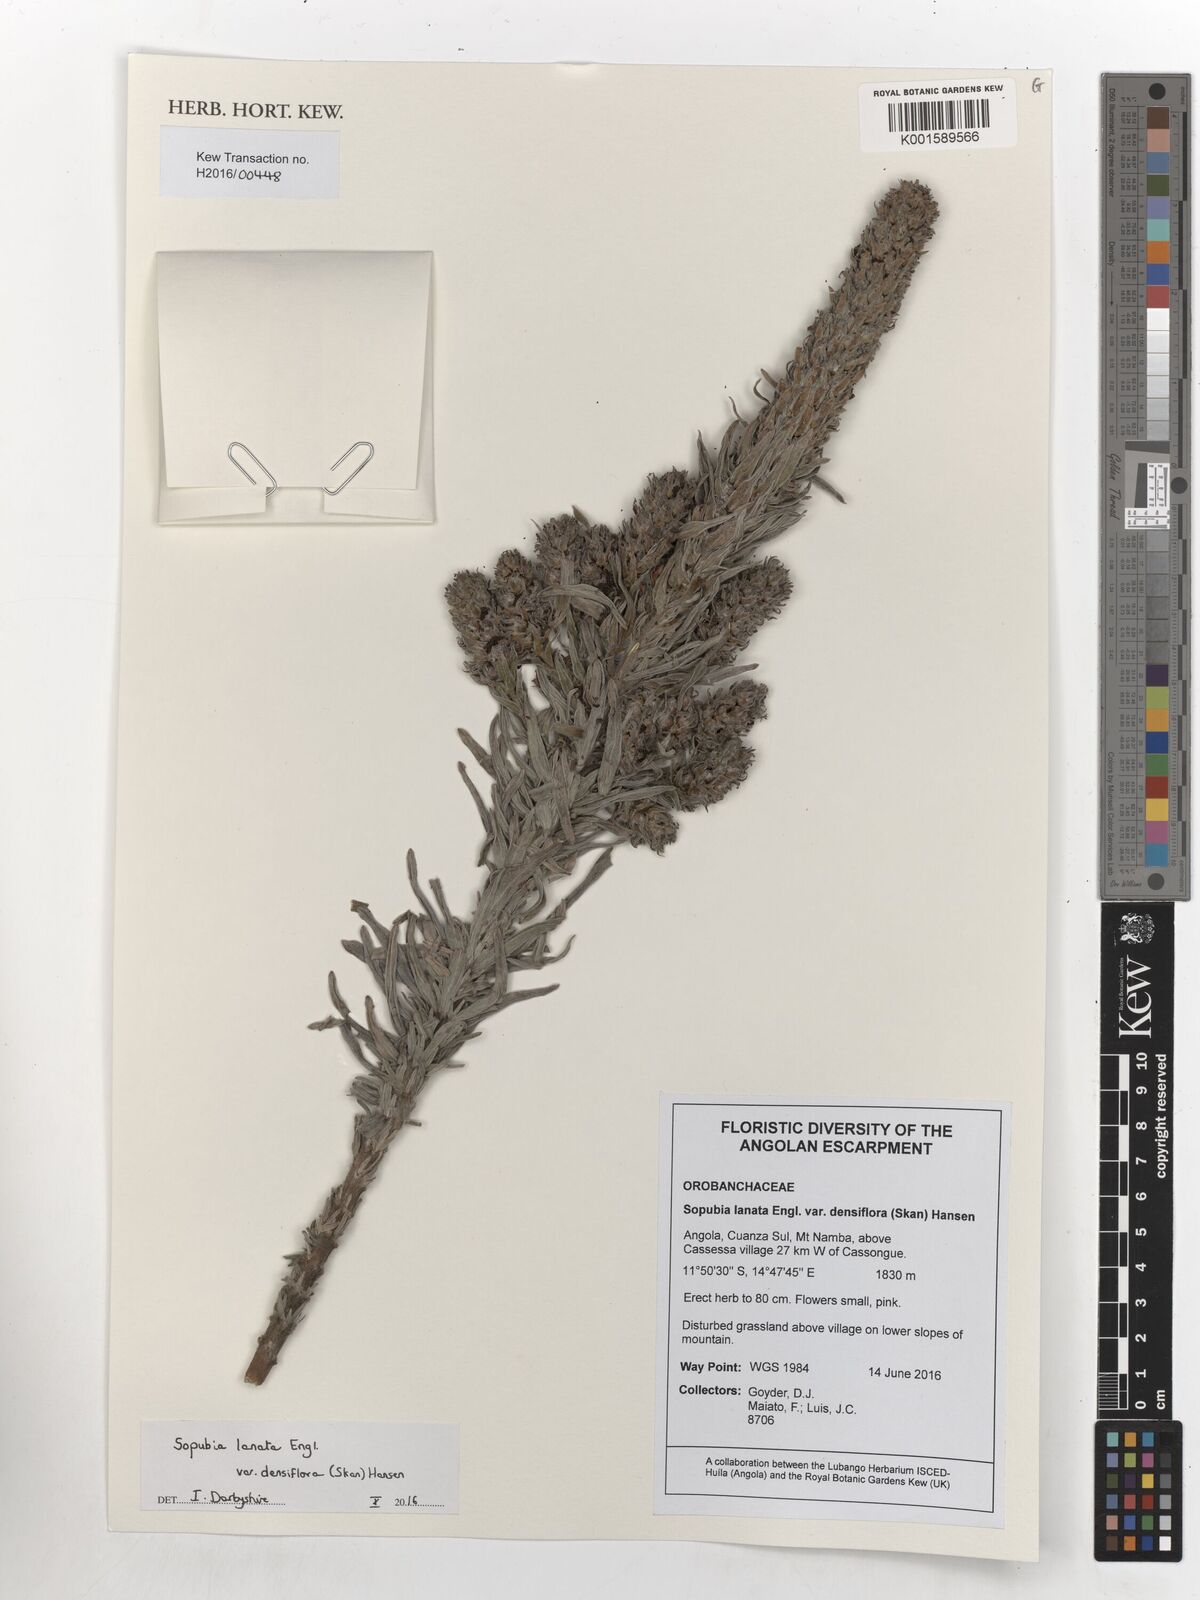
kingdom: Plantae
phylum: Tracheophyta
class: Magnoliopsida
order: Lamiales
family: Orobanchaceae
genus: Sopubia
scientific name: Sopubia lanata
